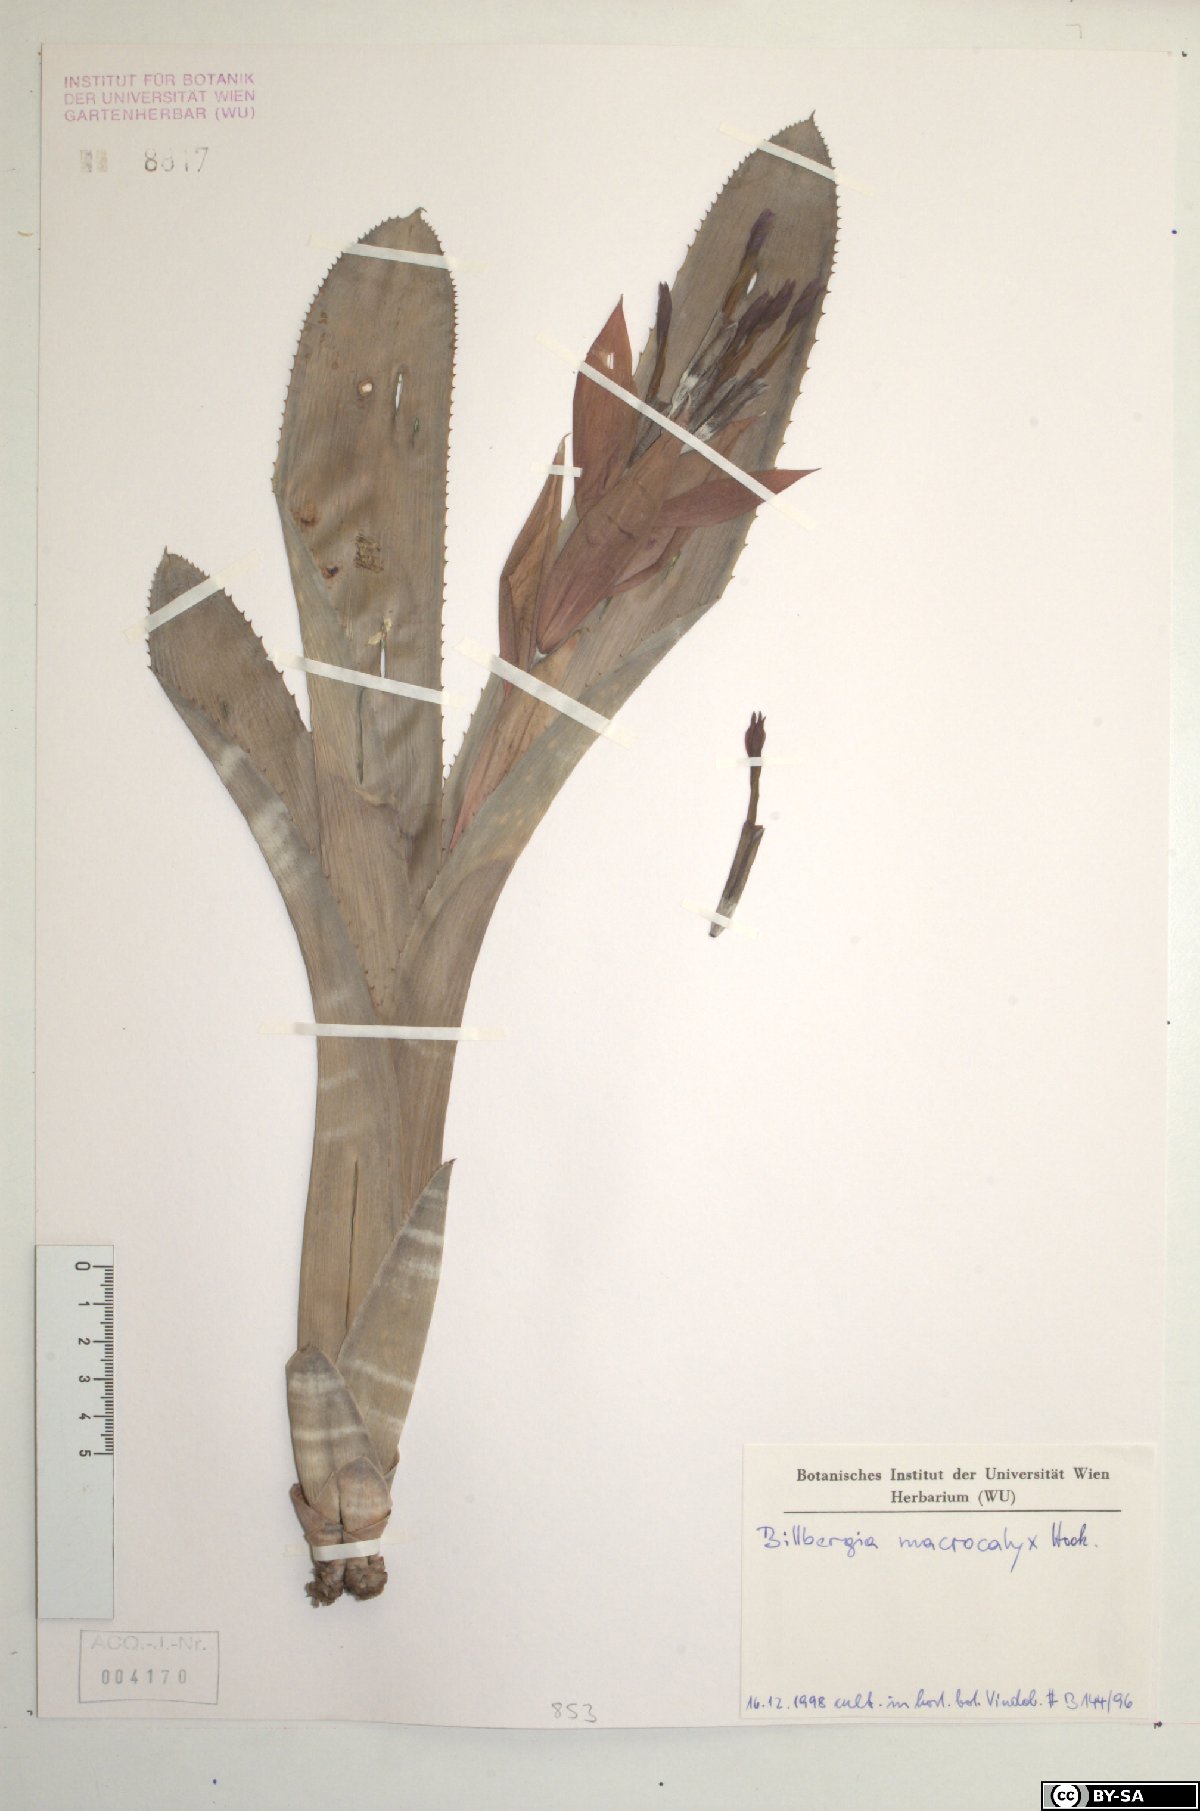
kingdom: Plantae
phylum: Tracheophyta
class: Liliopsida
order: Poales
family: Bromeliaceae
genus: Billbergia
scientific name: Billbergia macrocalyx
